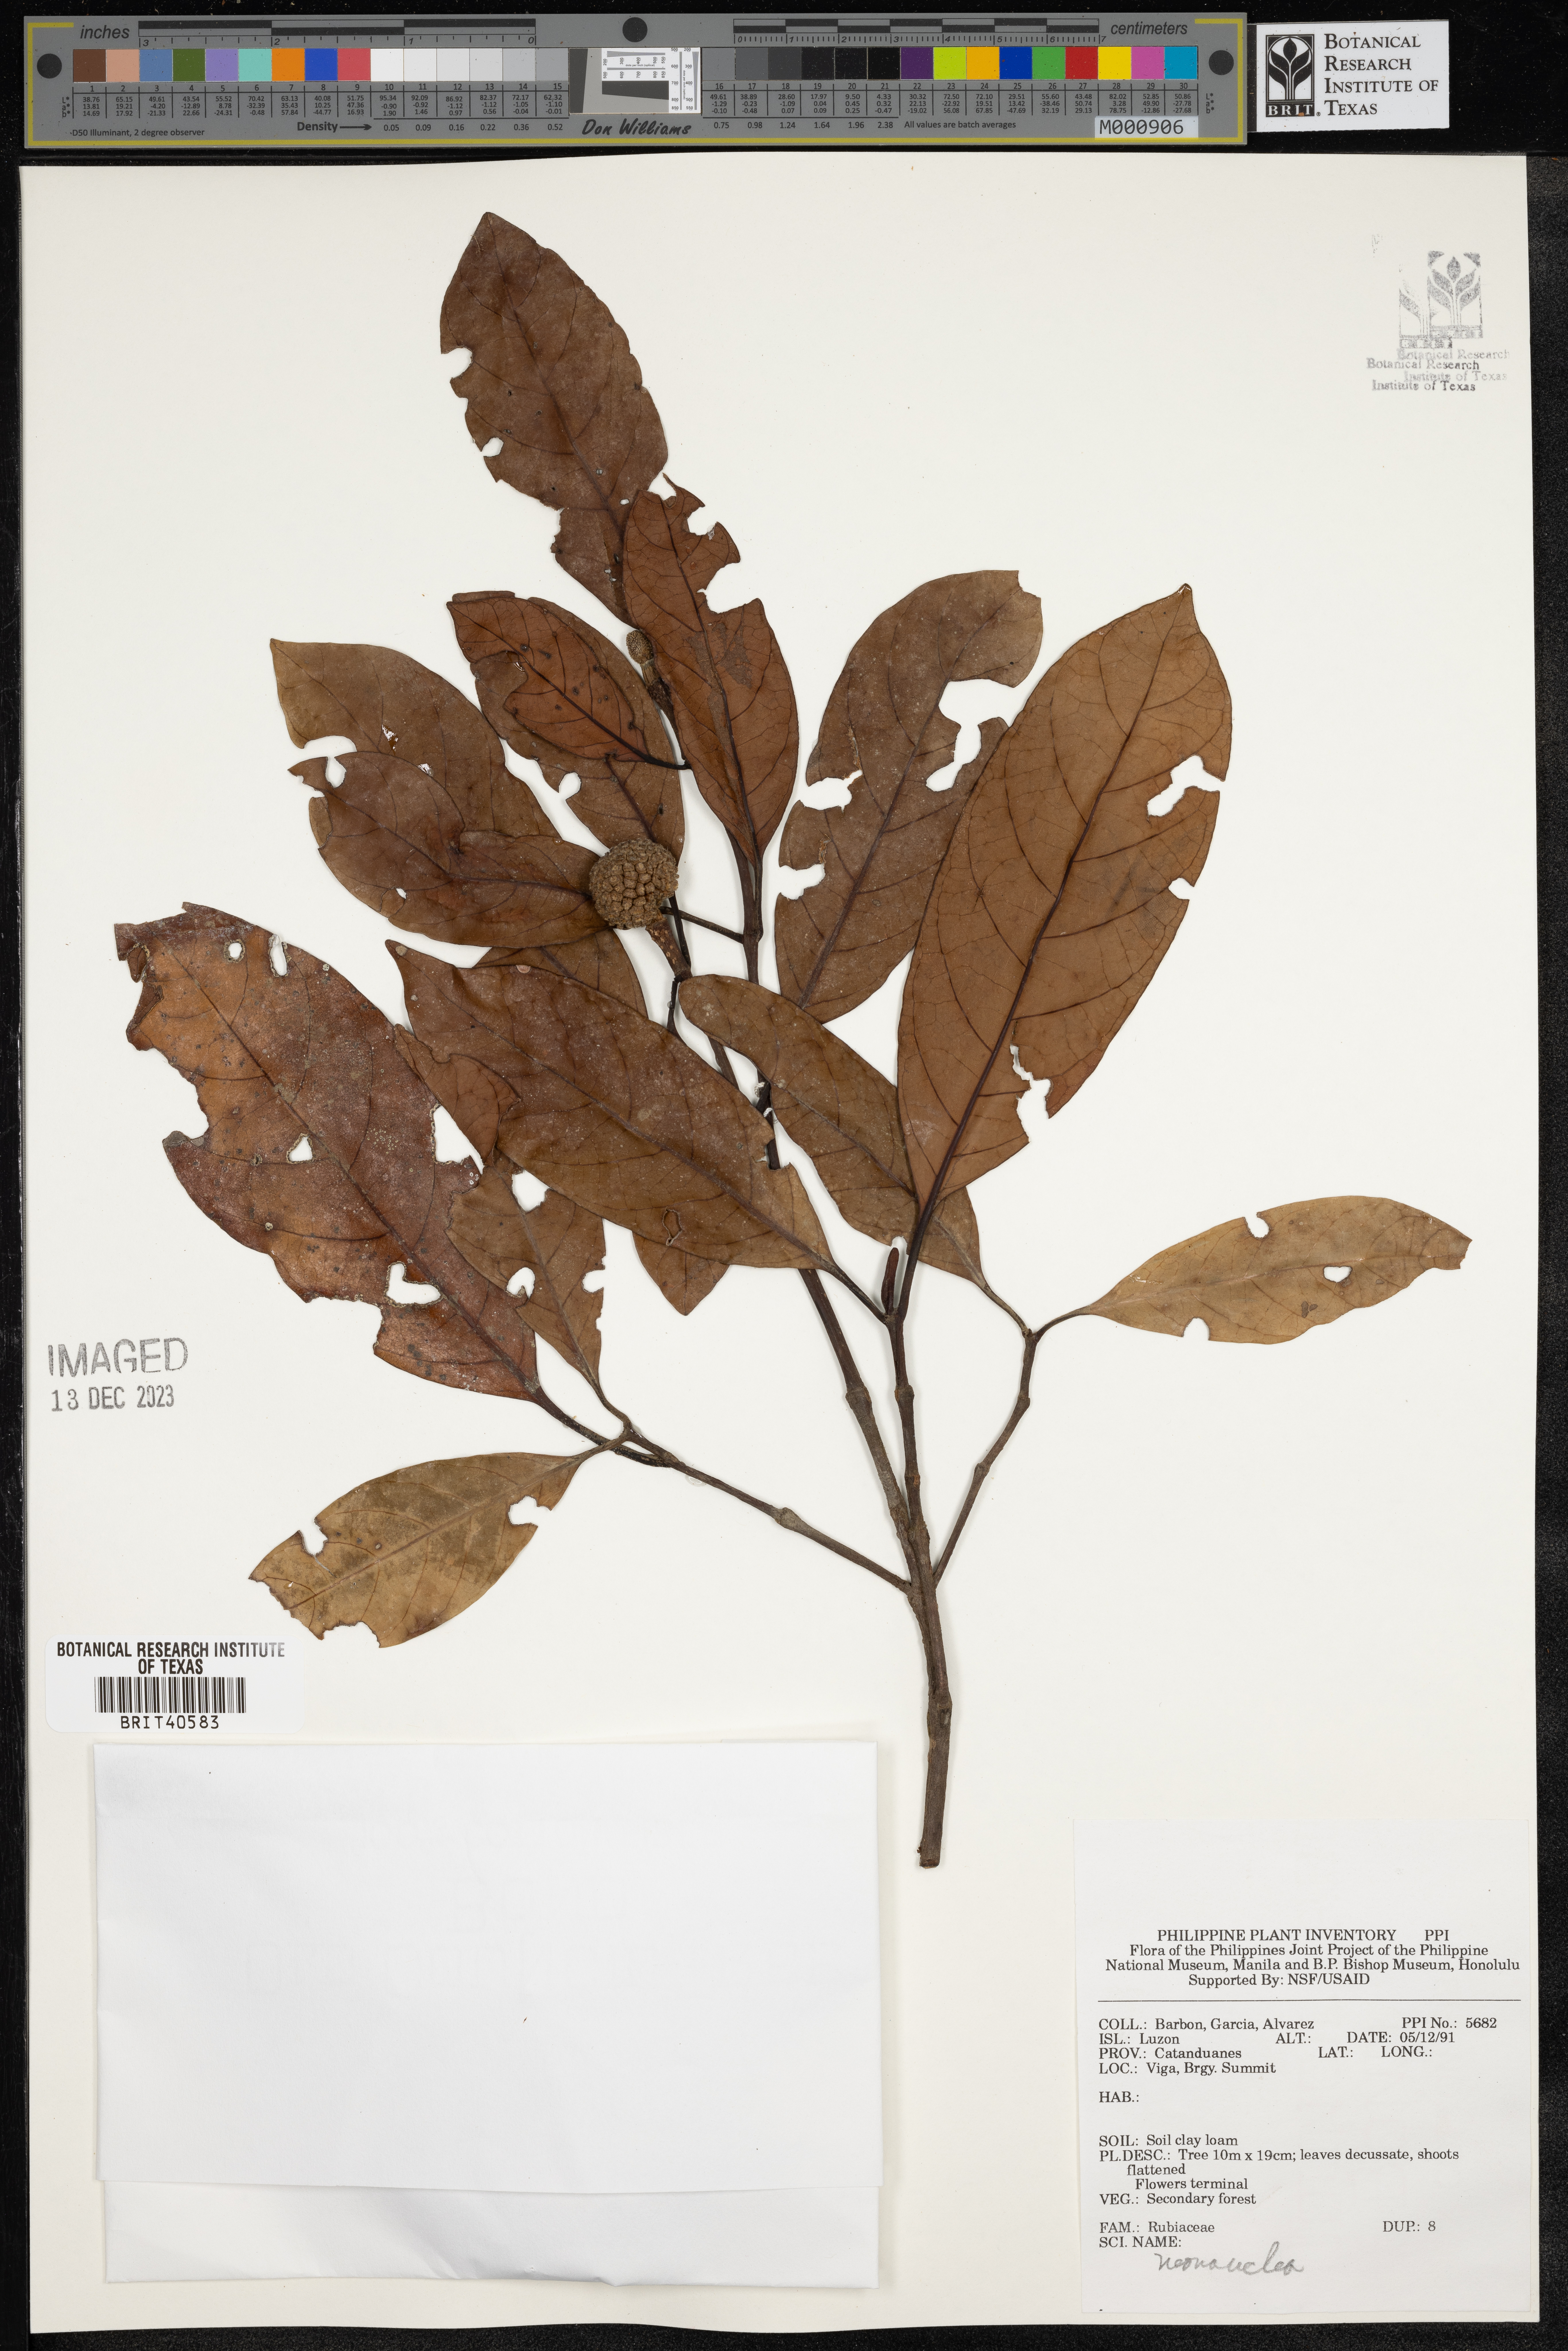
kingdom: Plantae
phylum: Tracheophyta
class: Magnoliopsida
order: Gentianales
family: Rubiaceae
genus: Neonauclea
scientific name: Neonauclea
